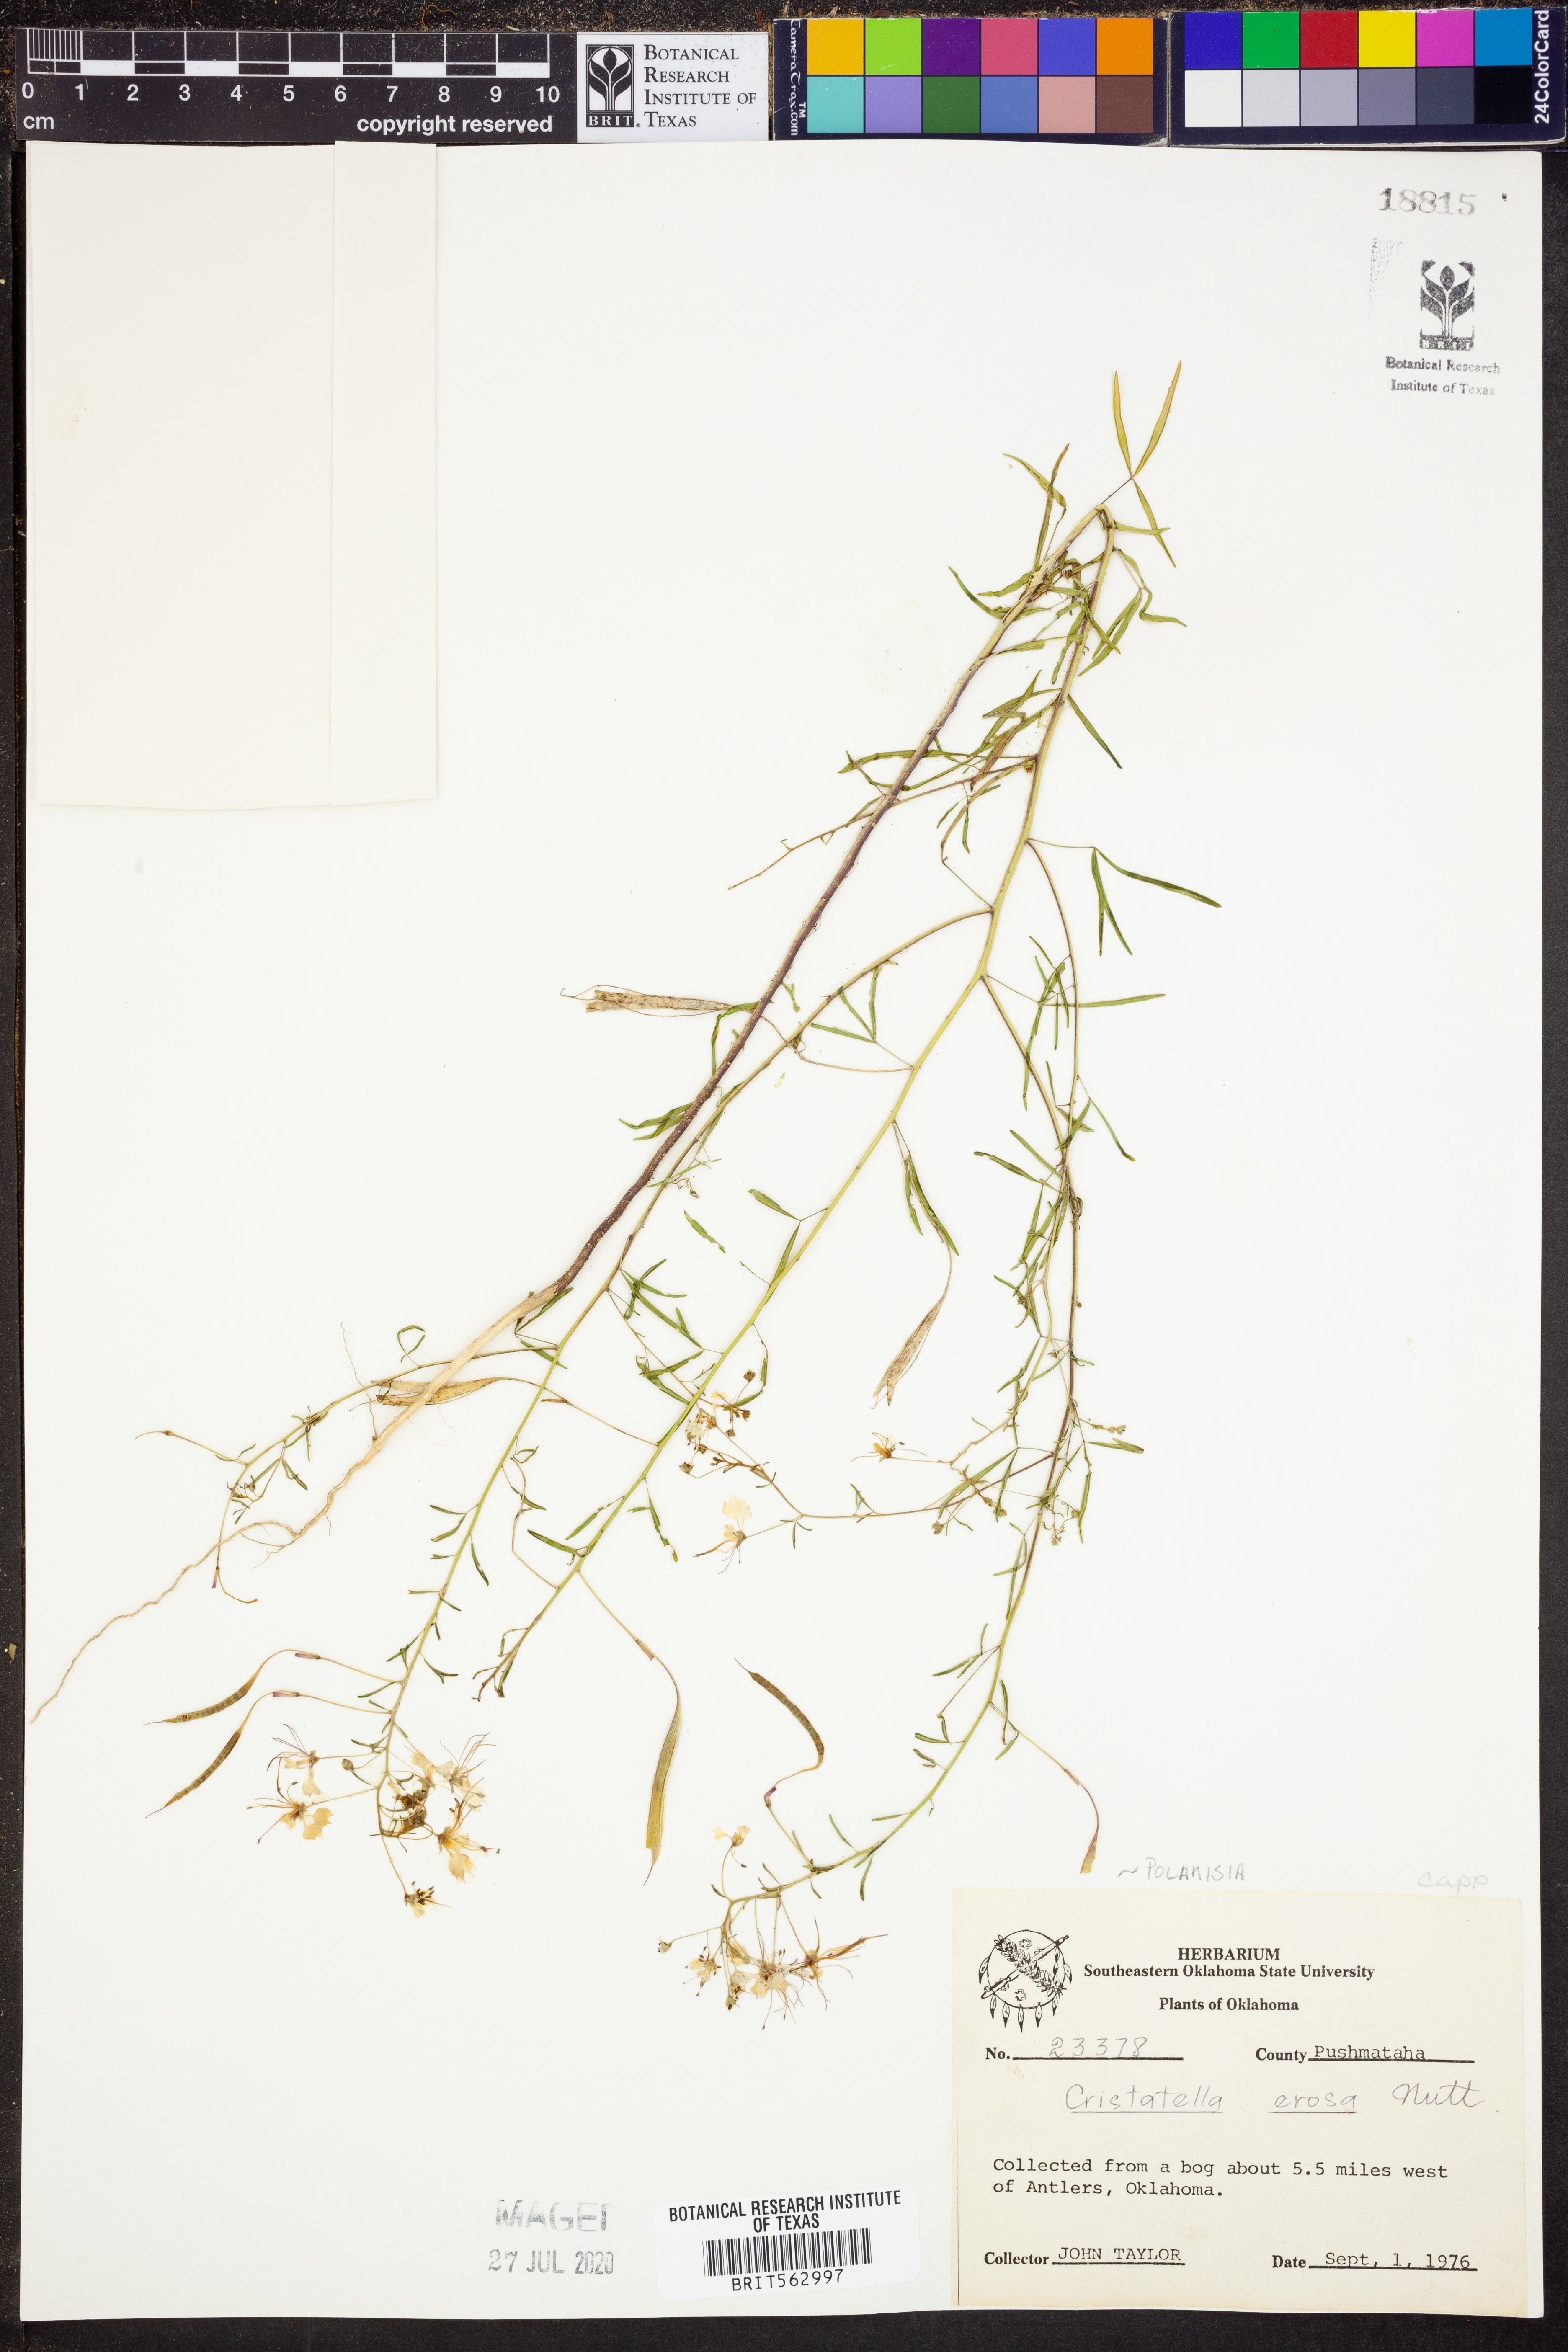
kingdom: Plantae
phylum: Tracheophyta
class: Magnoliopsida
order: Brassicales
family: Cleomaceae
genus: Polanisia
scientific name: Polanisia erosa
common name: Large clammyweed
